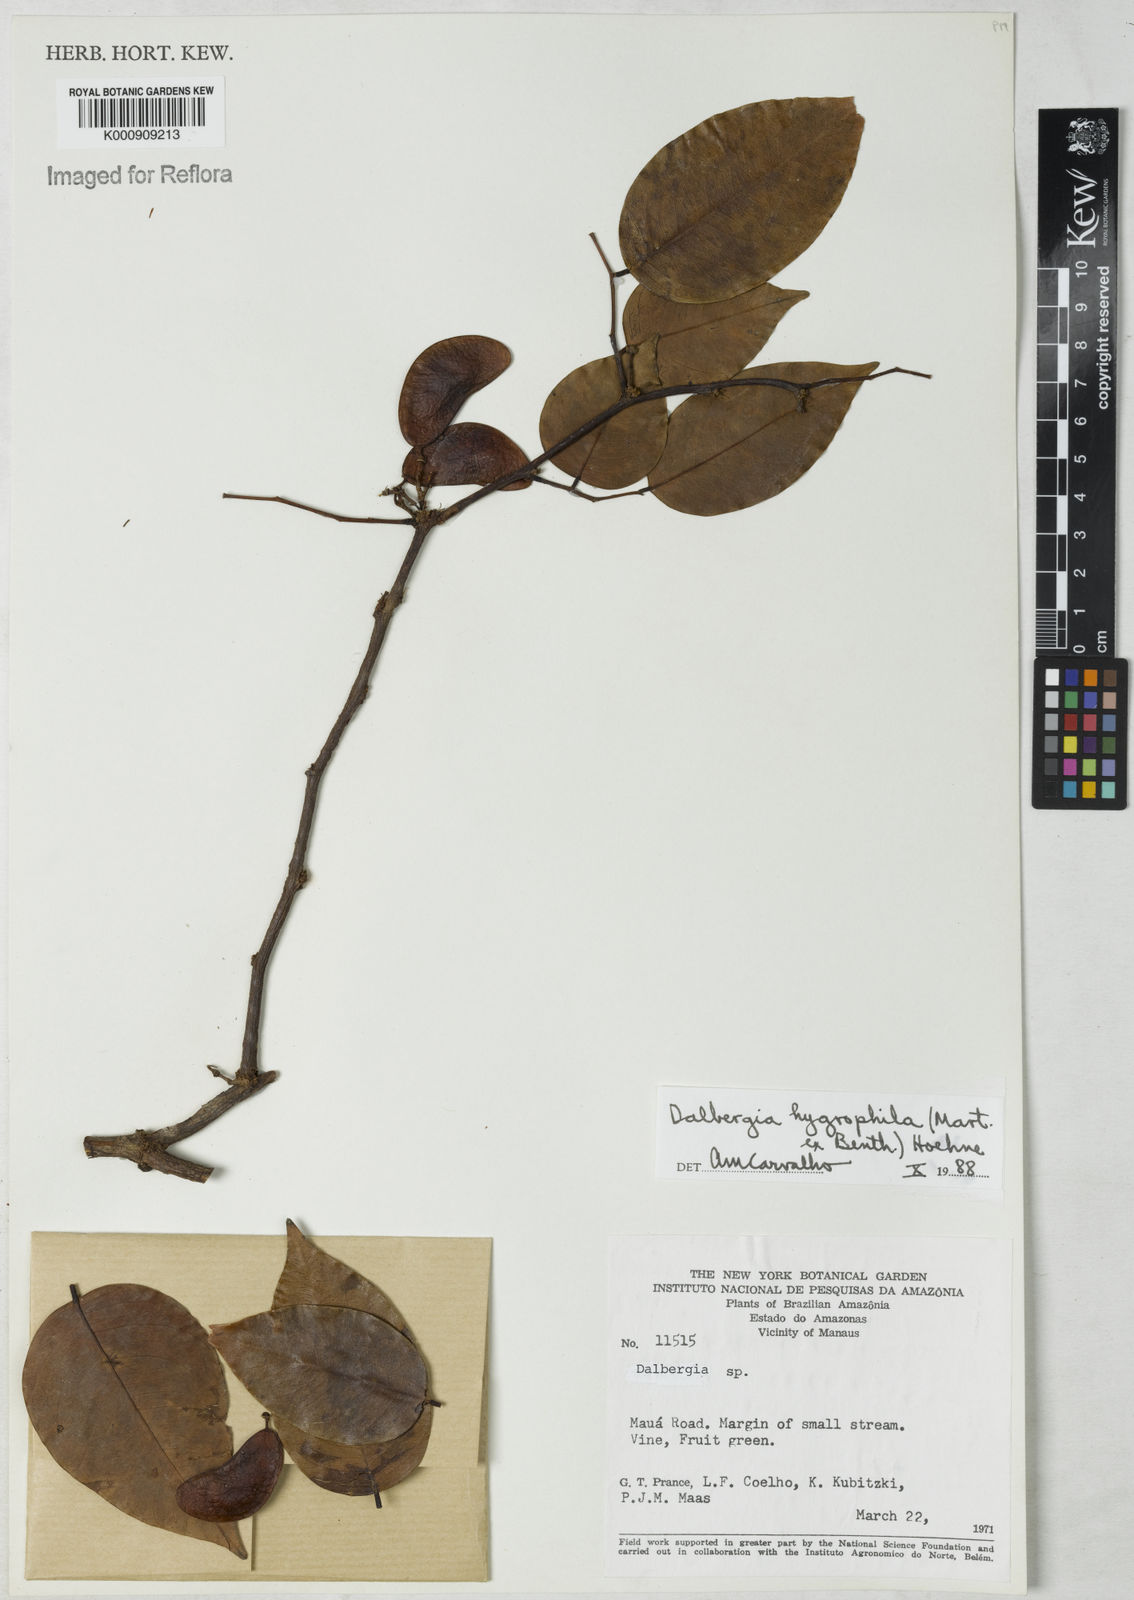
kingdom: Plantae
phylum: Tracheophyta
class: Magnoliopsida
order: Fabales
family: Fabaceae
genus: Dalbergia
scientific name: Dalbergia hygrophila
